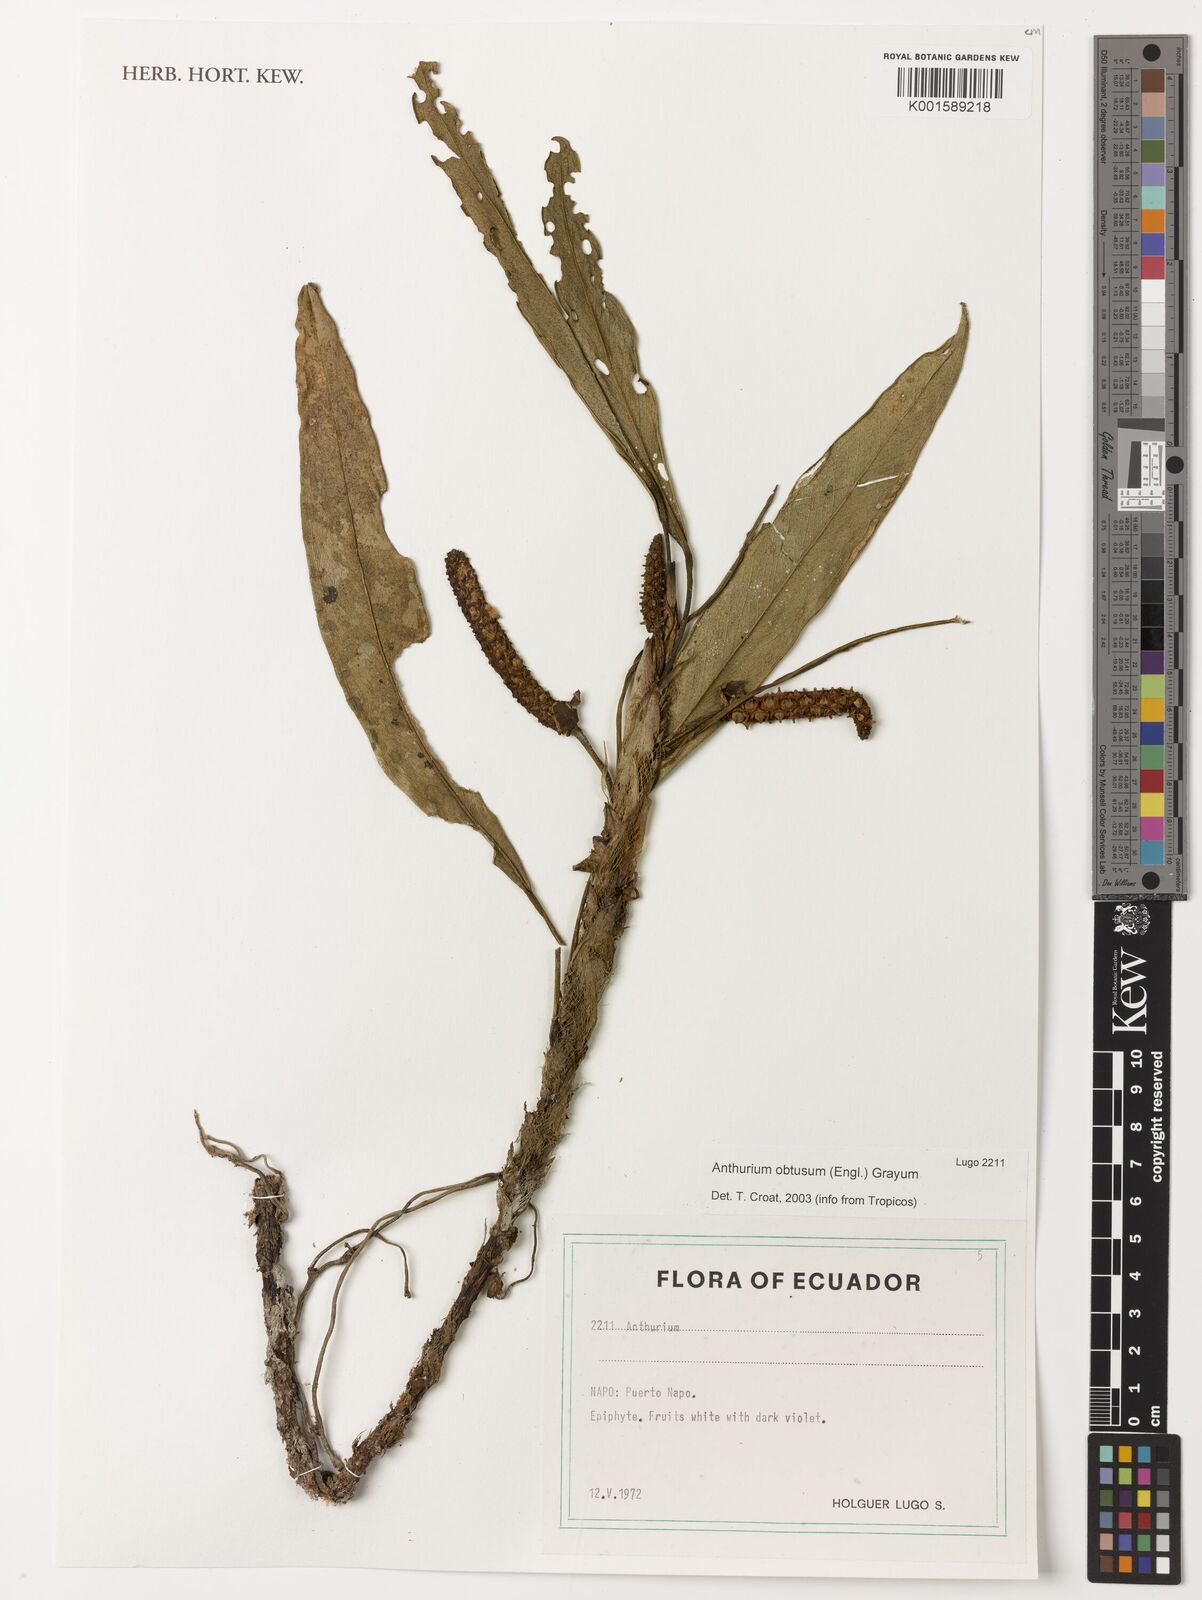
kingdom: Plantae
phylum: Tracheophyta
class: Liliopsida
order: Alismatales
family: Araceae
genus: Anthurium
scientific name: Anthurium obtusum
